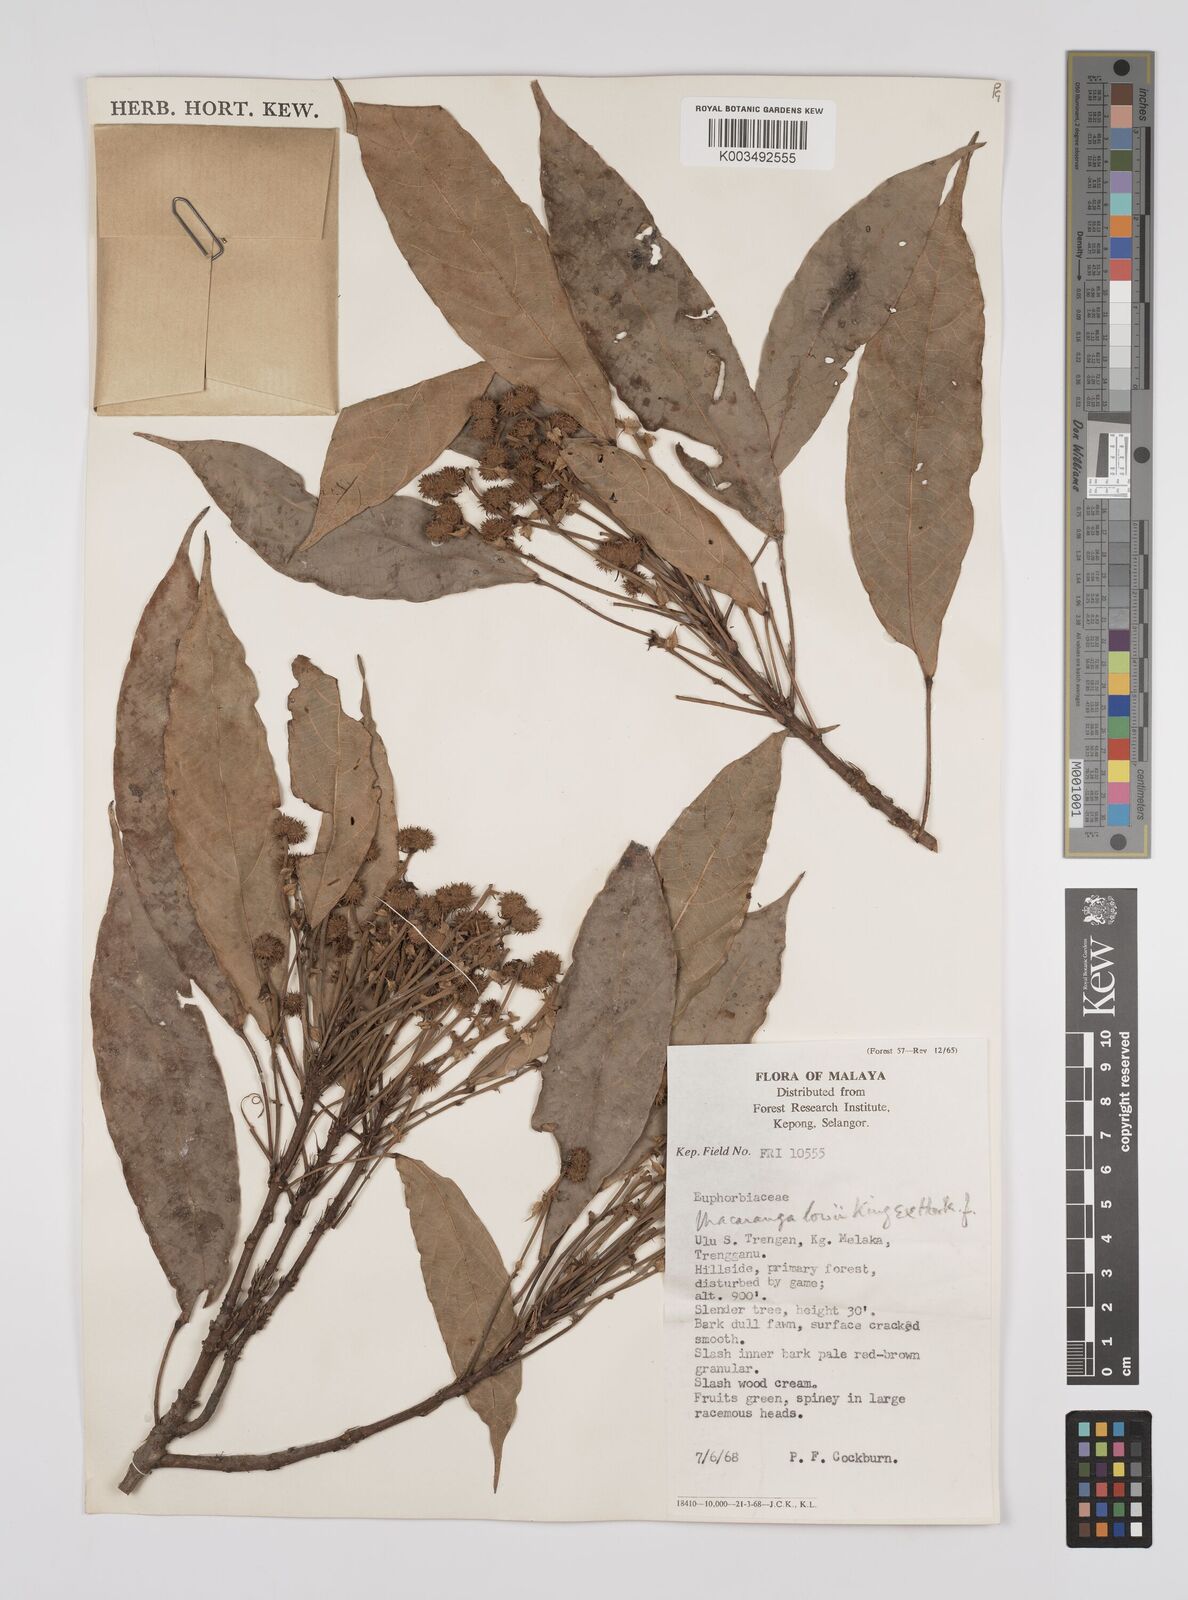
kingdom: Plantae
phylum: Tracheophyta
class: Magnoliopsida
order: Malpighiales
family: Euphorbiaceae
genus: Macaranga
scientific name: Macaranga lowii
